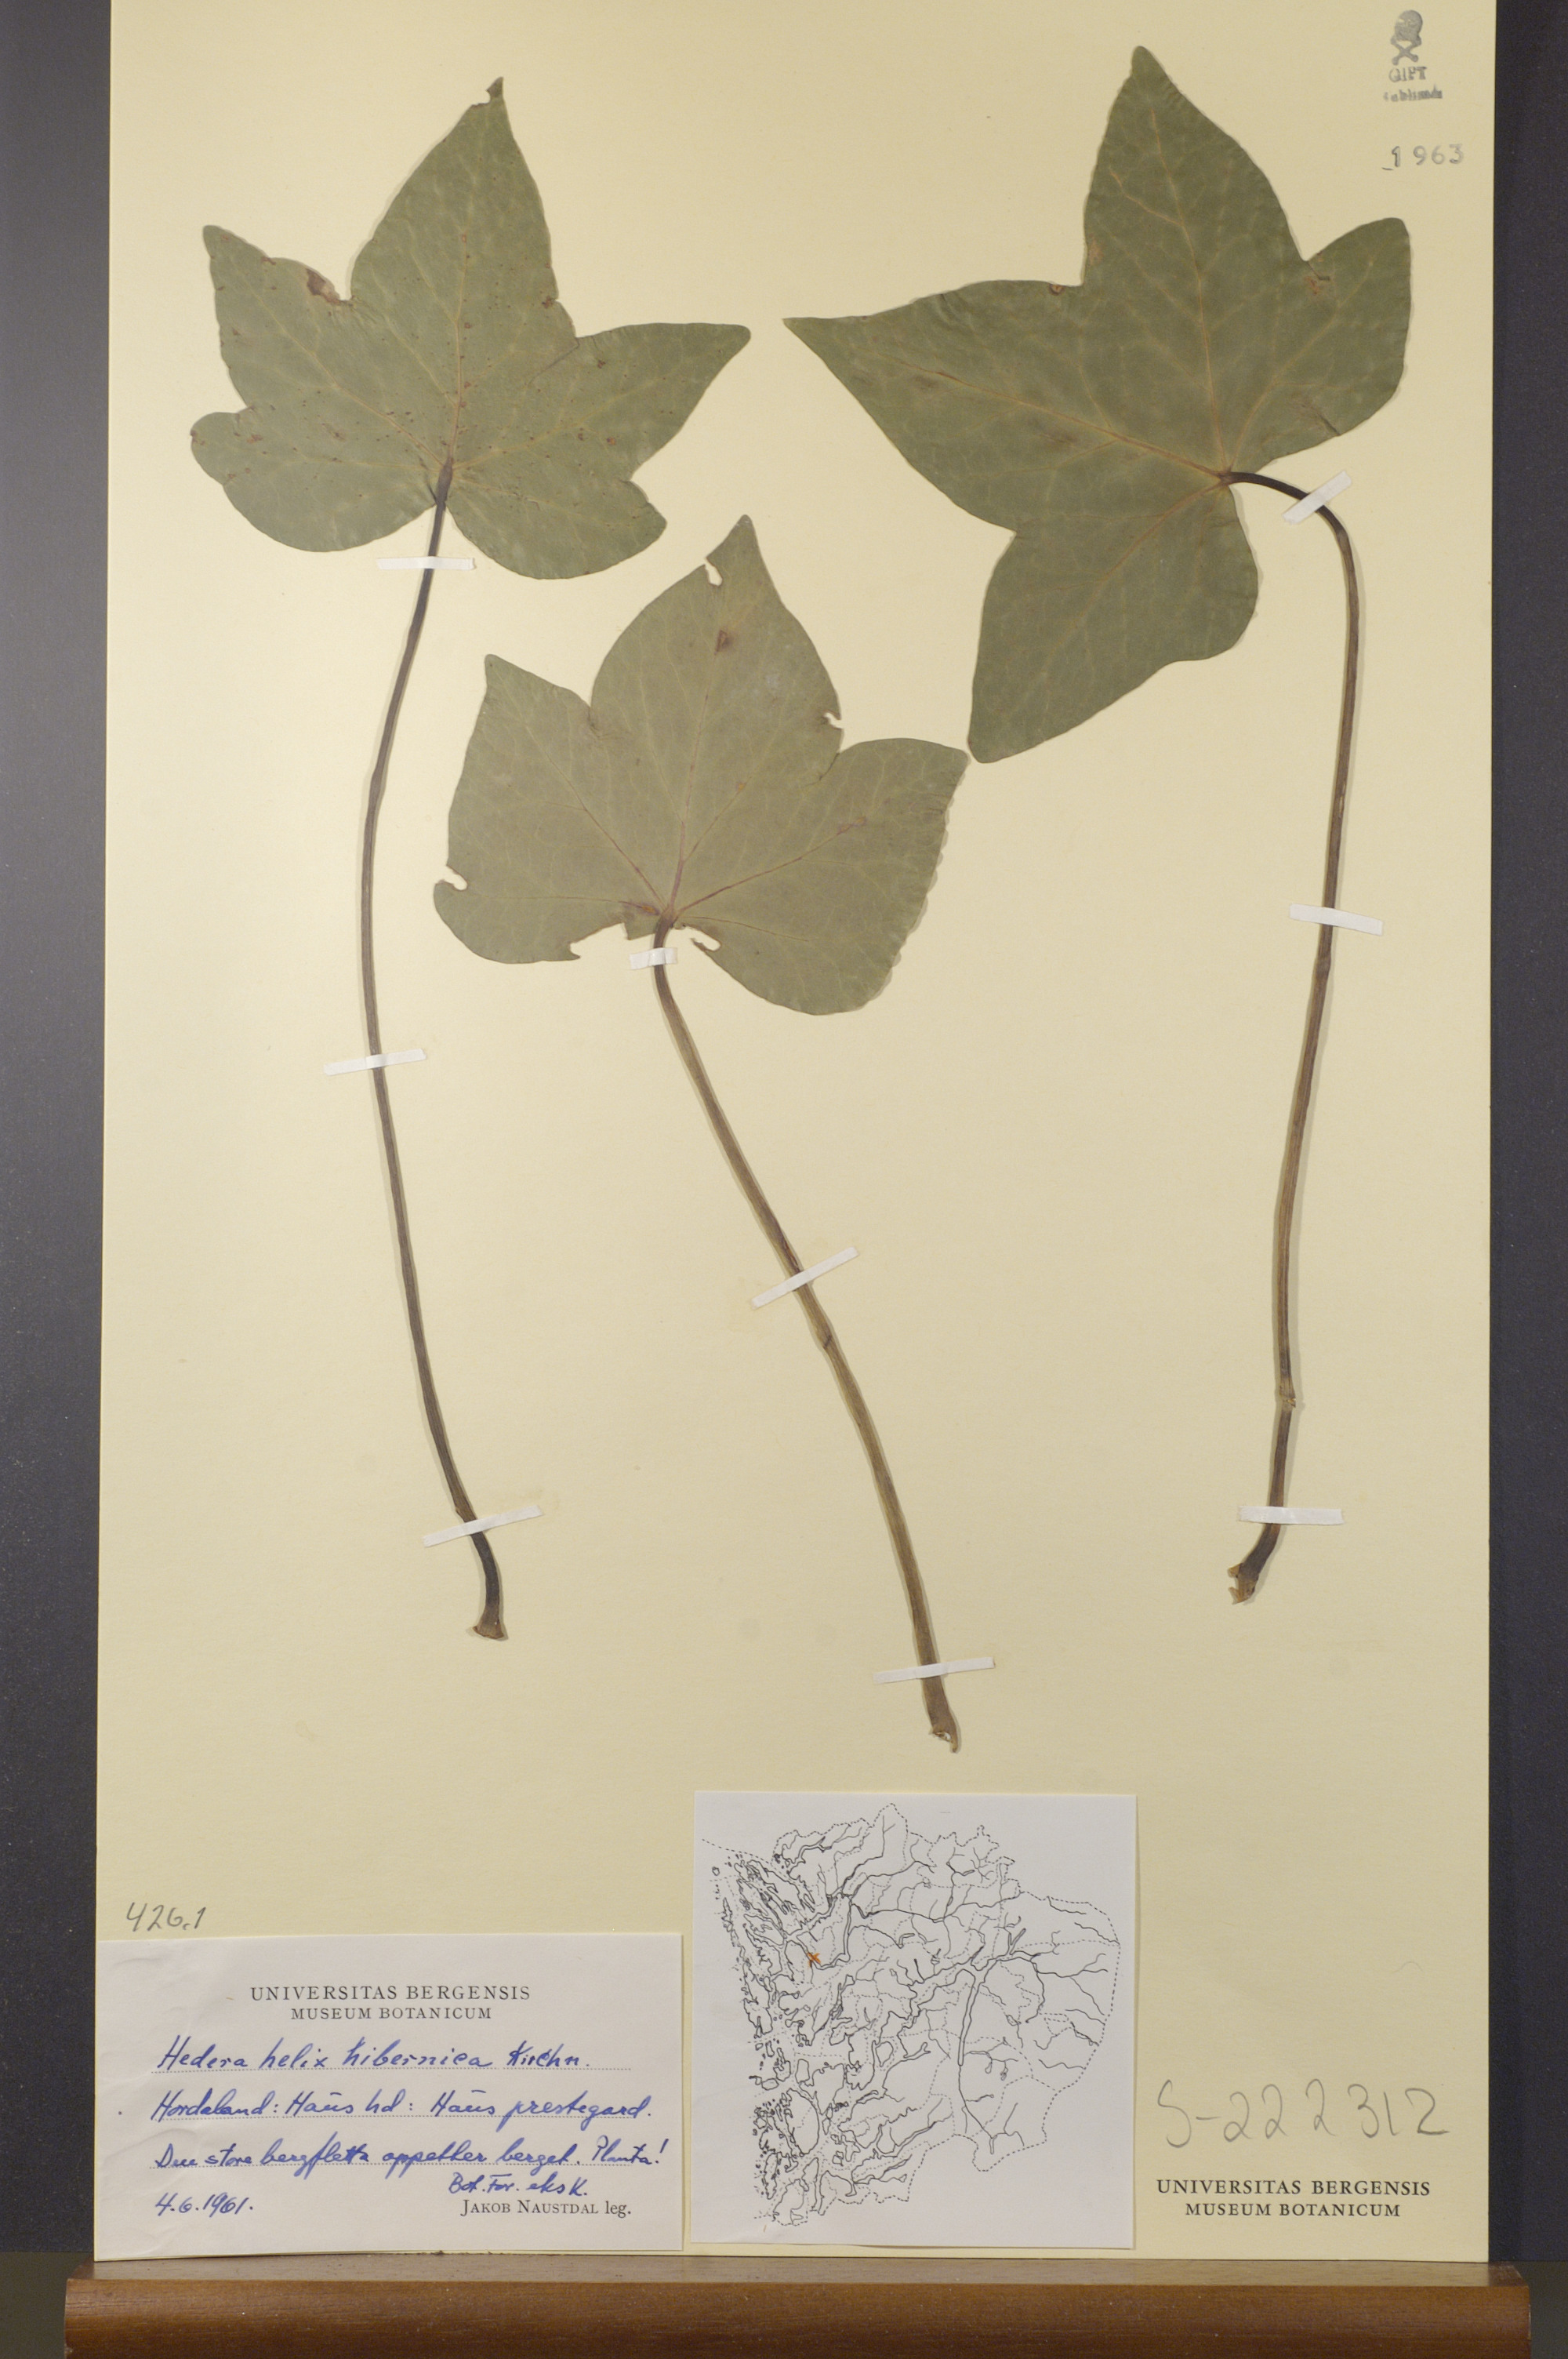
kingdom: Plantae
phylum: Tracheophyta
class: Magnoliopsida
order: Apiales
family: Araliaceae
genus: Hedera
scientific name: Hedera hibernica
